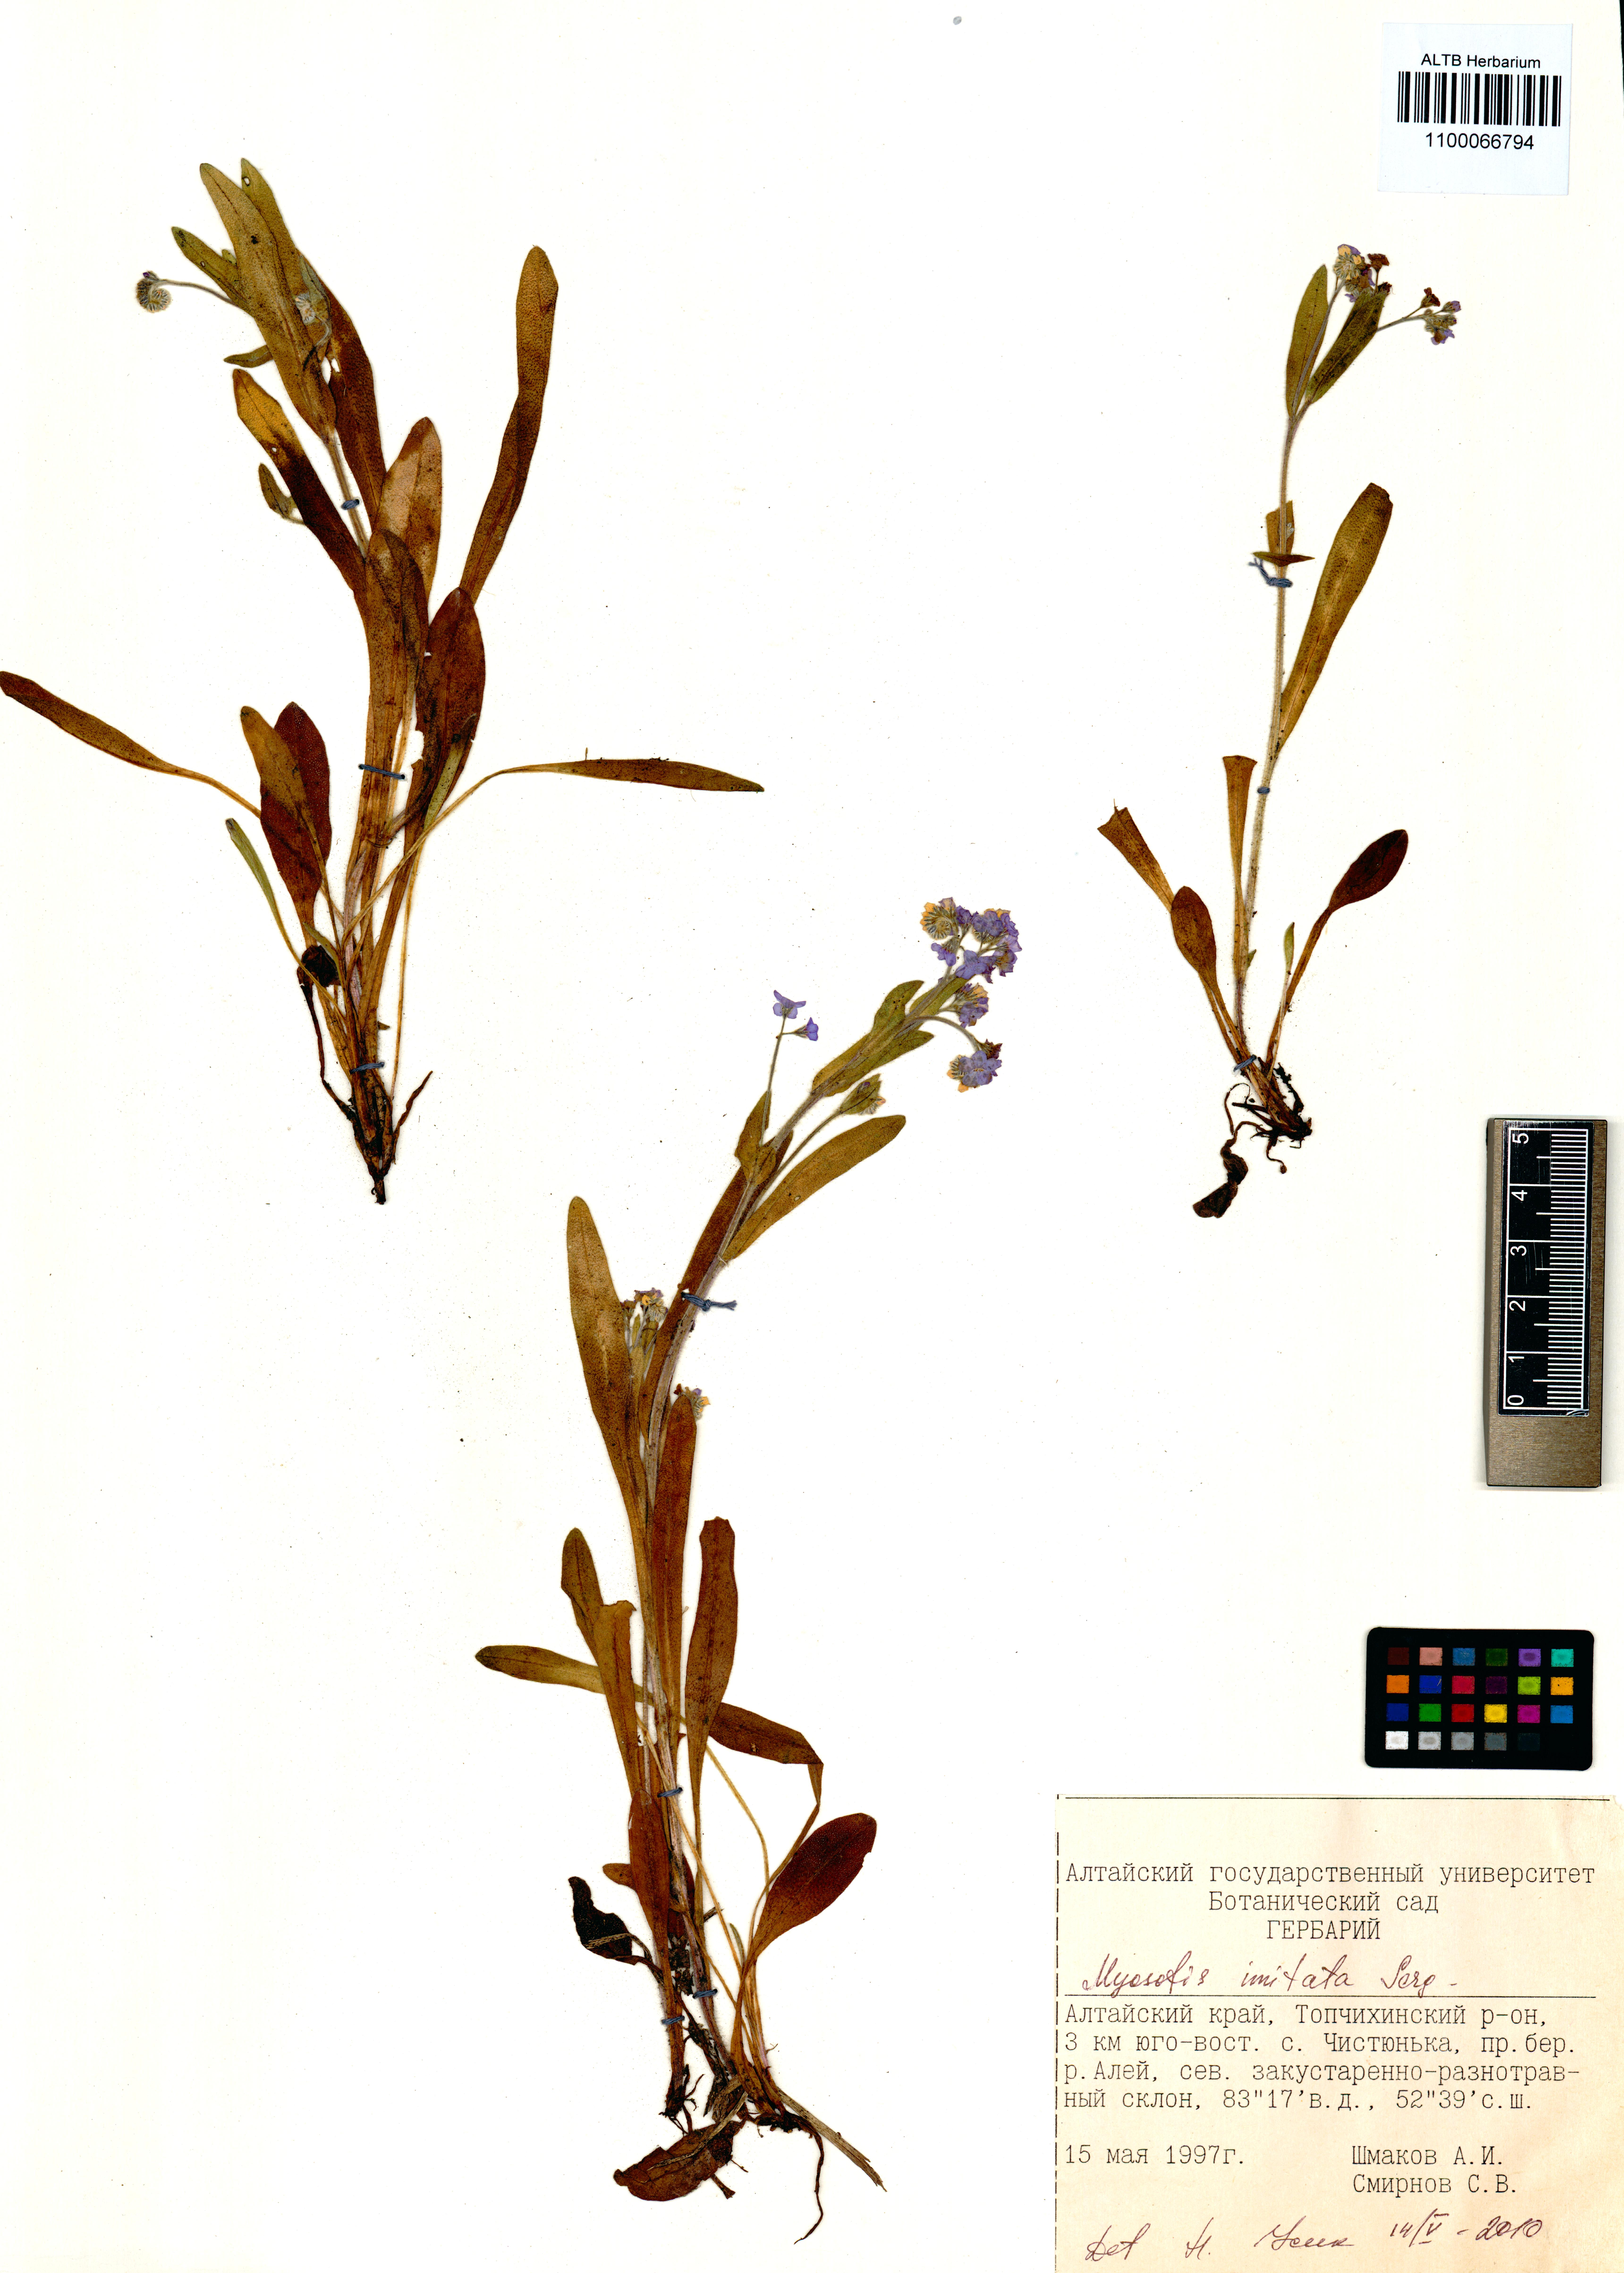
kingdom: Plantae
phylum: Tracheophyta
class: Magnoliopsida
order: Boraginales
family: Boraginaceae
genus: Myosotis
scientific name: Myosotis imitata
